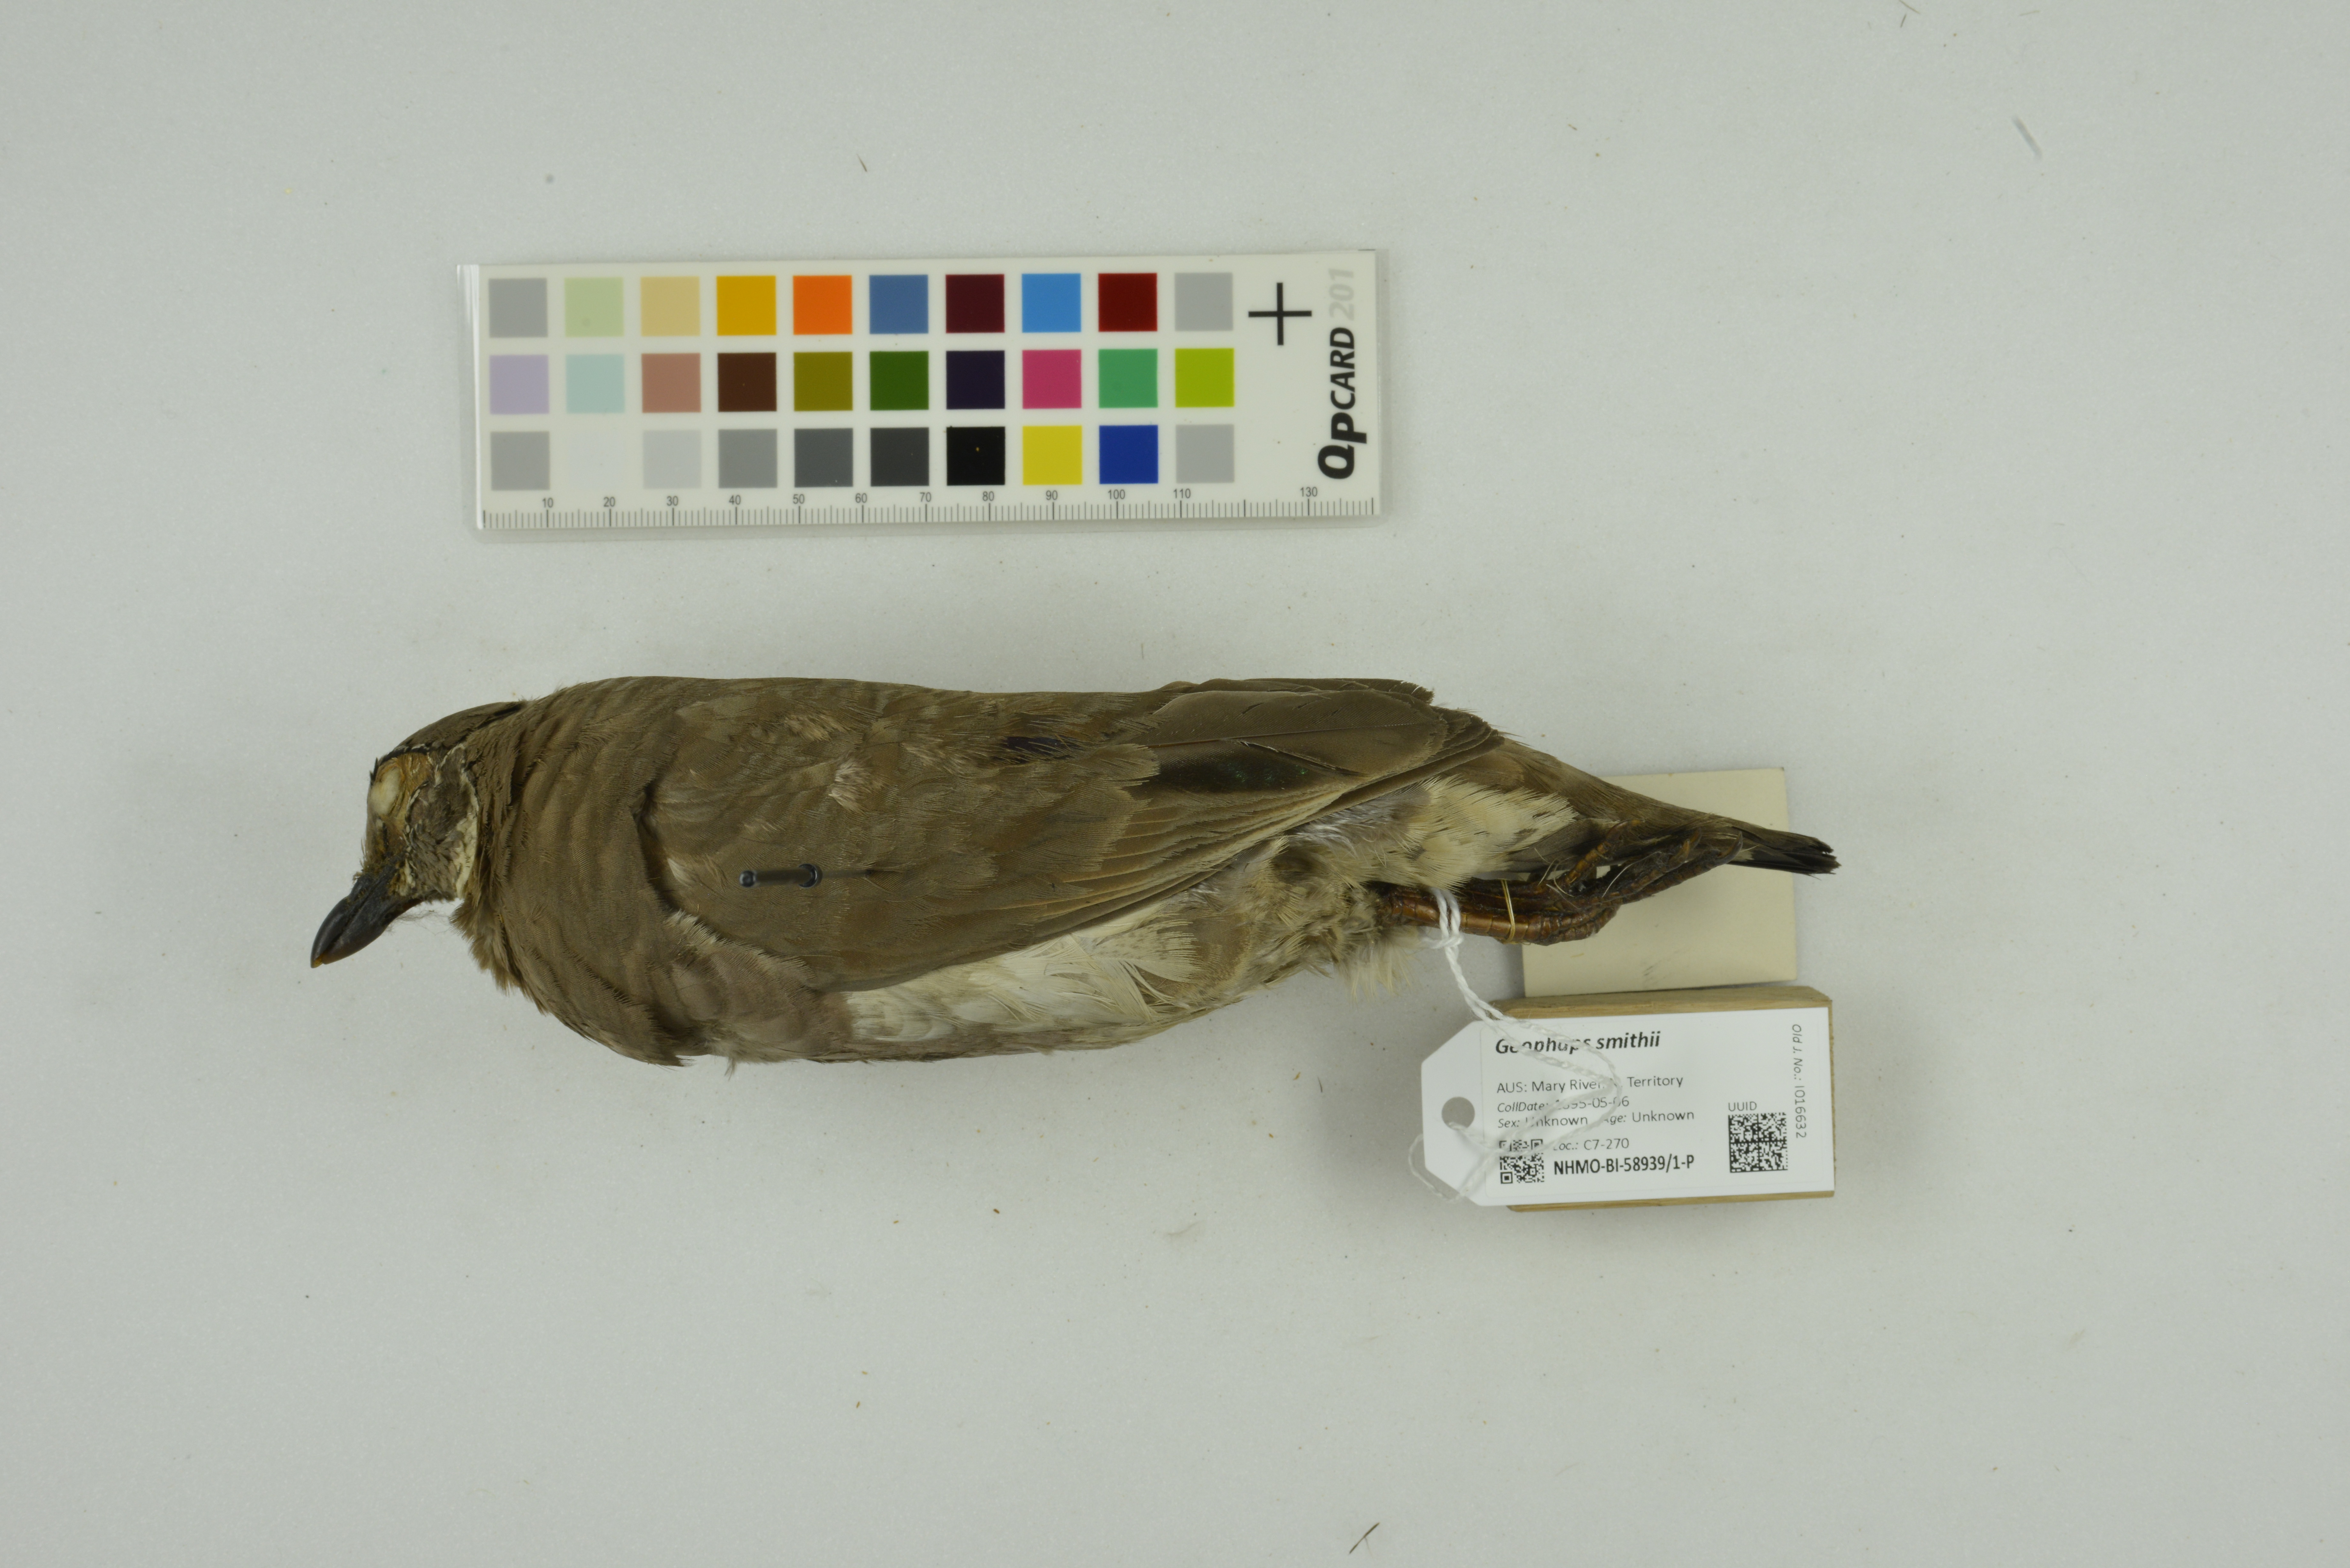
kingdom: Animalia
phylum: Chordata
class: Aves
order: Columbiformes
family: Columbidae
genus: Geophaps
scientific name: Geophaps smithii
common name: Partridge pigeon
